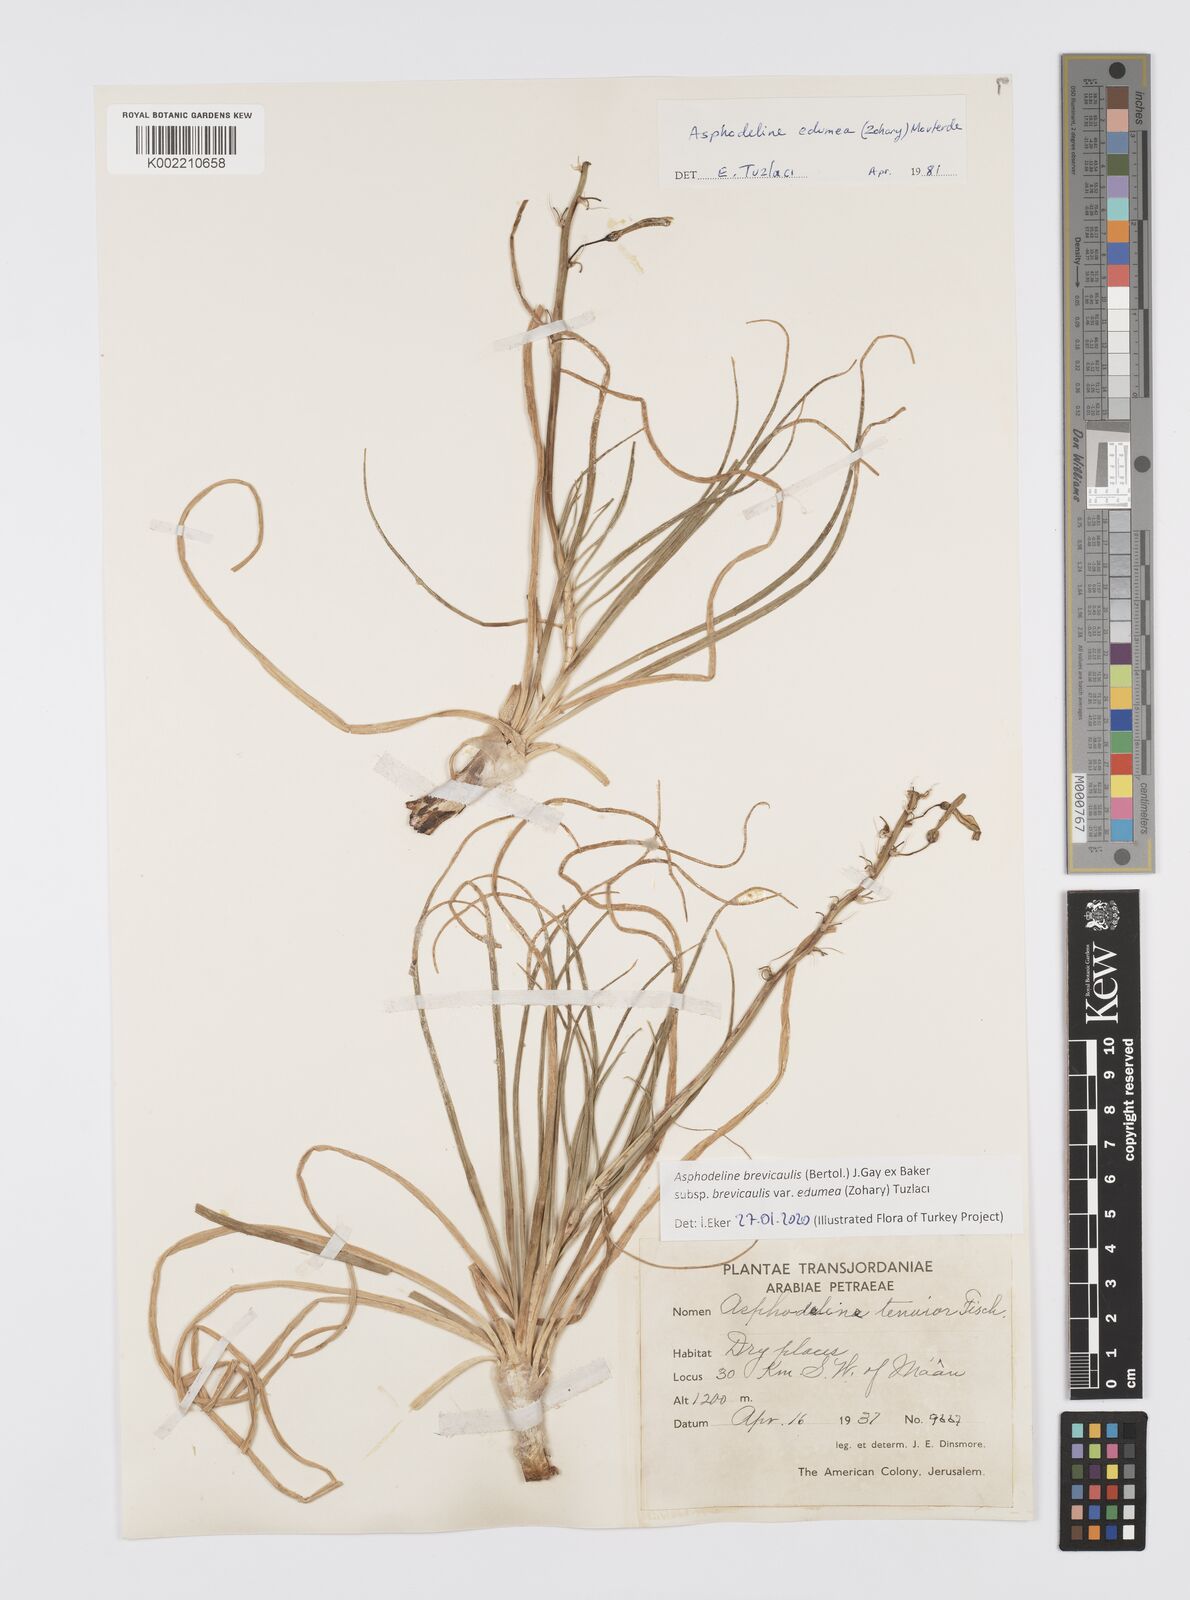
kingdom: Plantae
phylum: Tracheophyta
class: Liliopsida
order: Asparagales
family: Asphodelaceae
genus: Asphodeline
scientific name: Asphodeline brevicaulis
